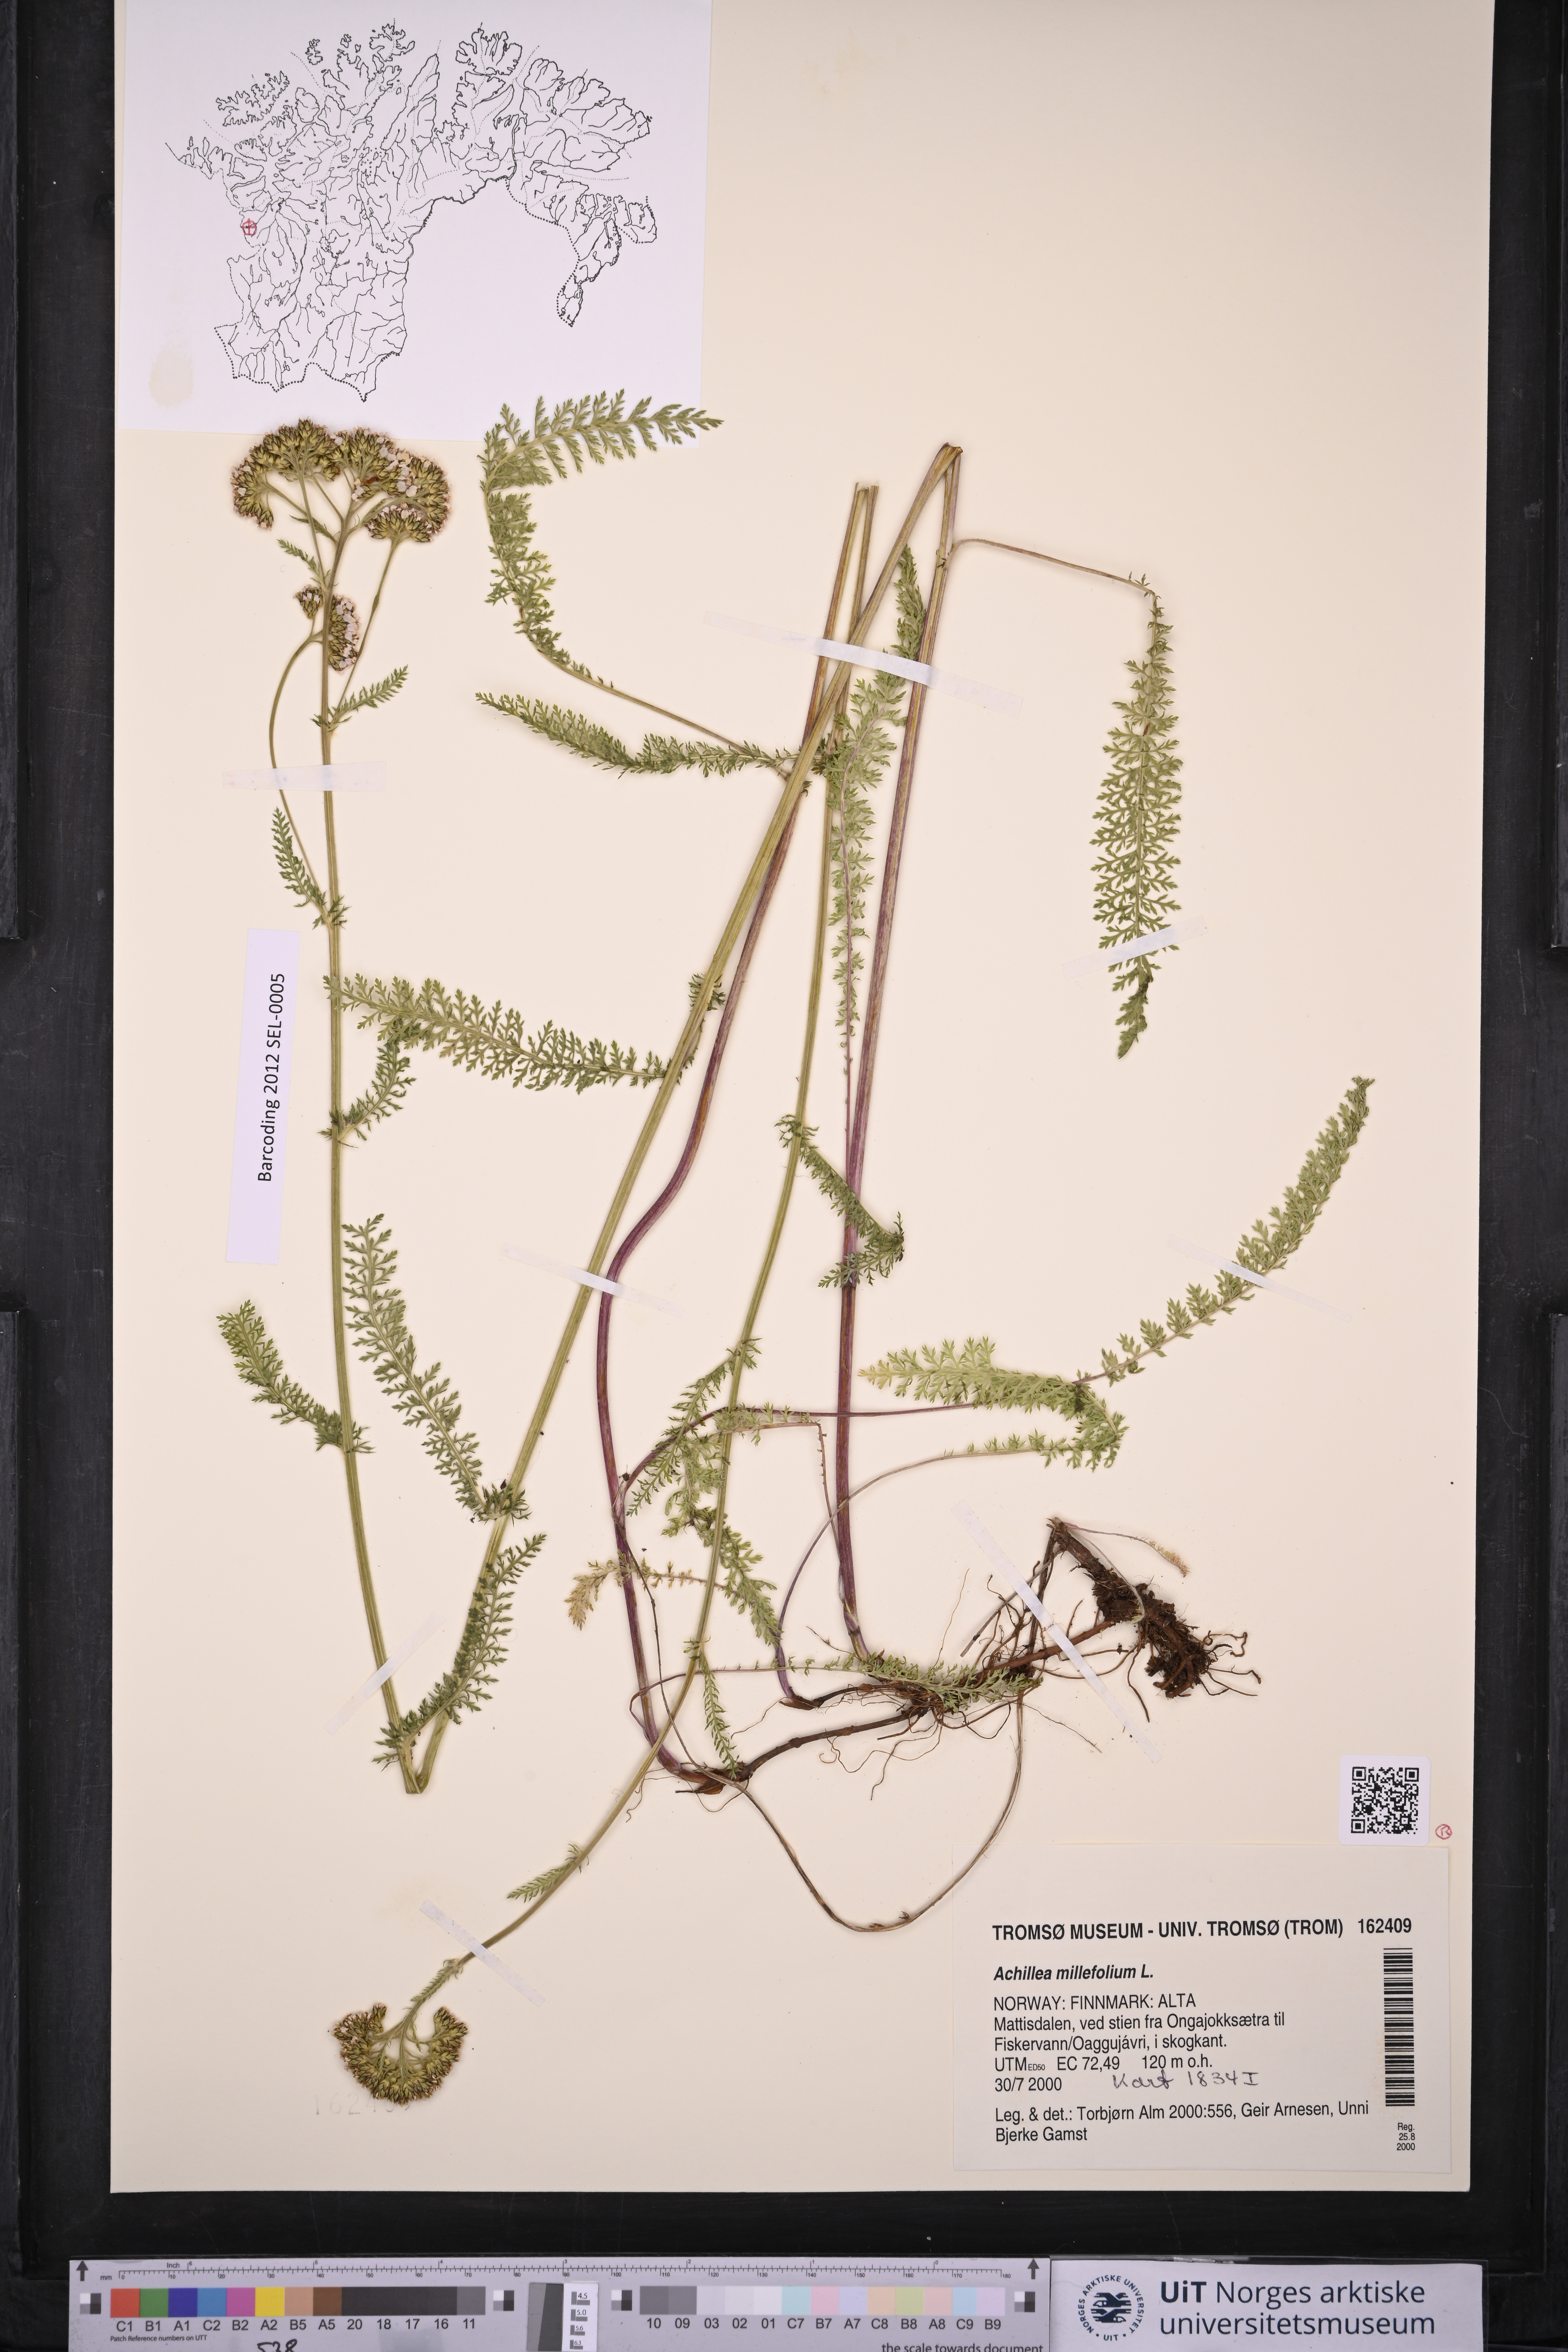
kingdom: Plantae
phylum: Tracheophyta
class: Magnoliopsida
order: Asterales
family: Asteraceae
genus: Achillea
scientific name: Achillea millefolium
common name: Yarrow
